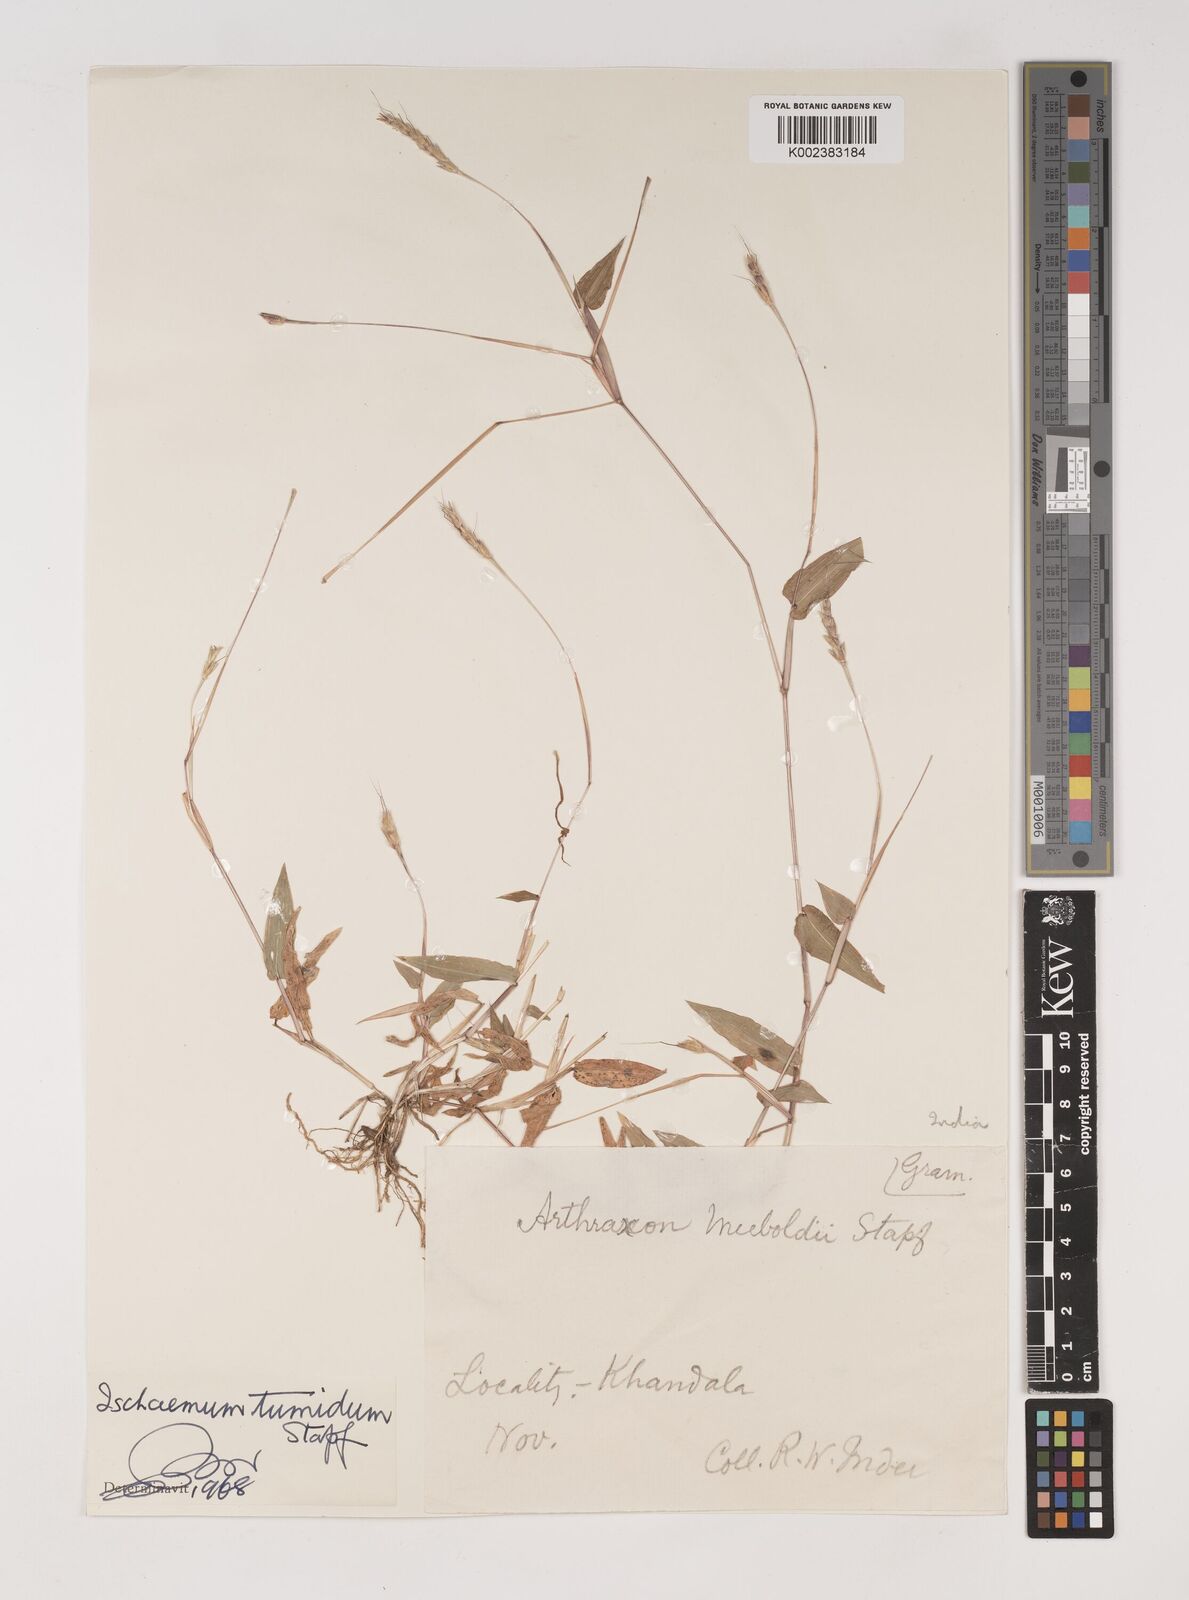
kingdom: Plantae
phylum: Tracheophyta
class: Liliopsida
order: Poales
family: Poaceae
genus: Ischaemum
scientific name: Ischaemum tumidum
